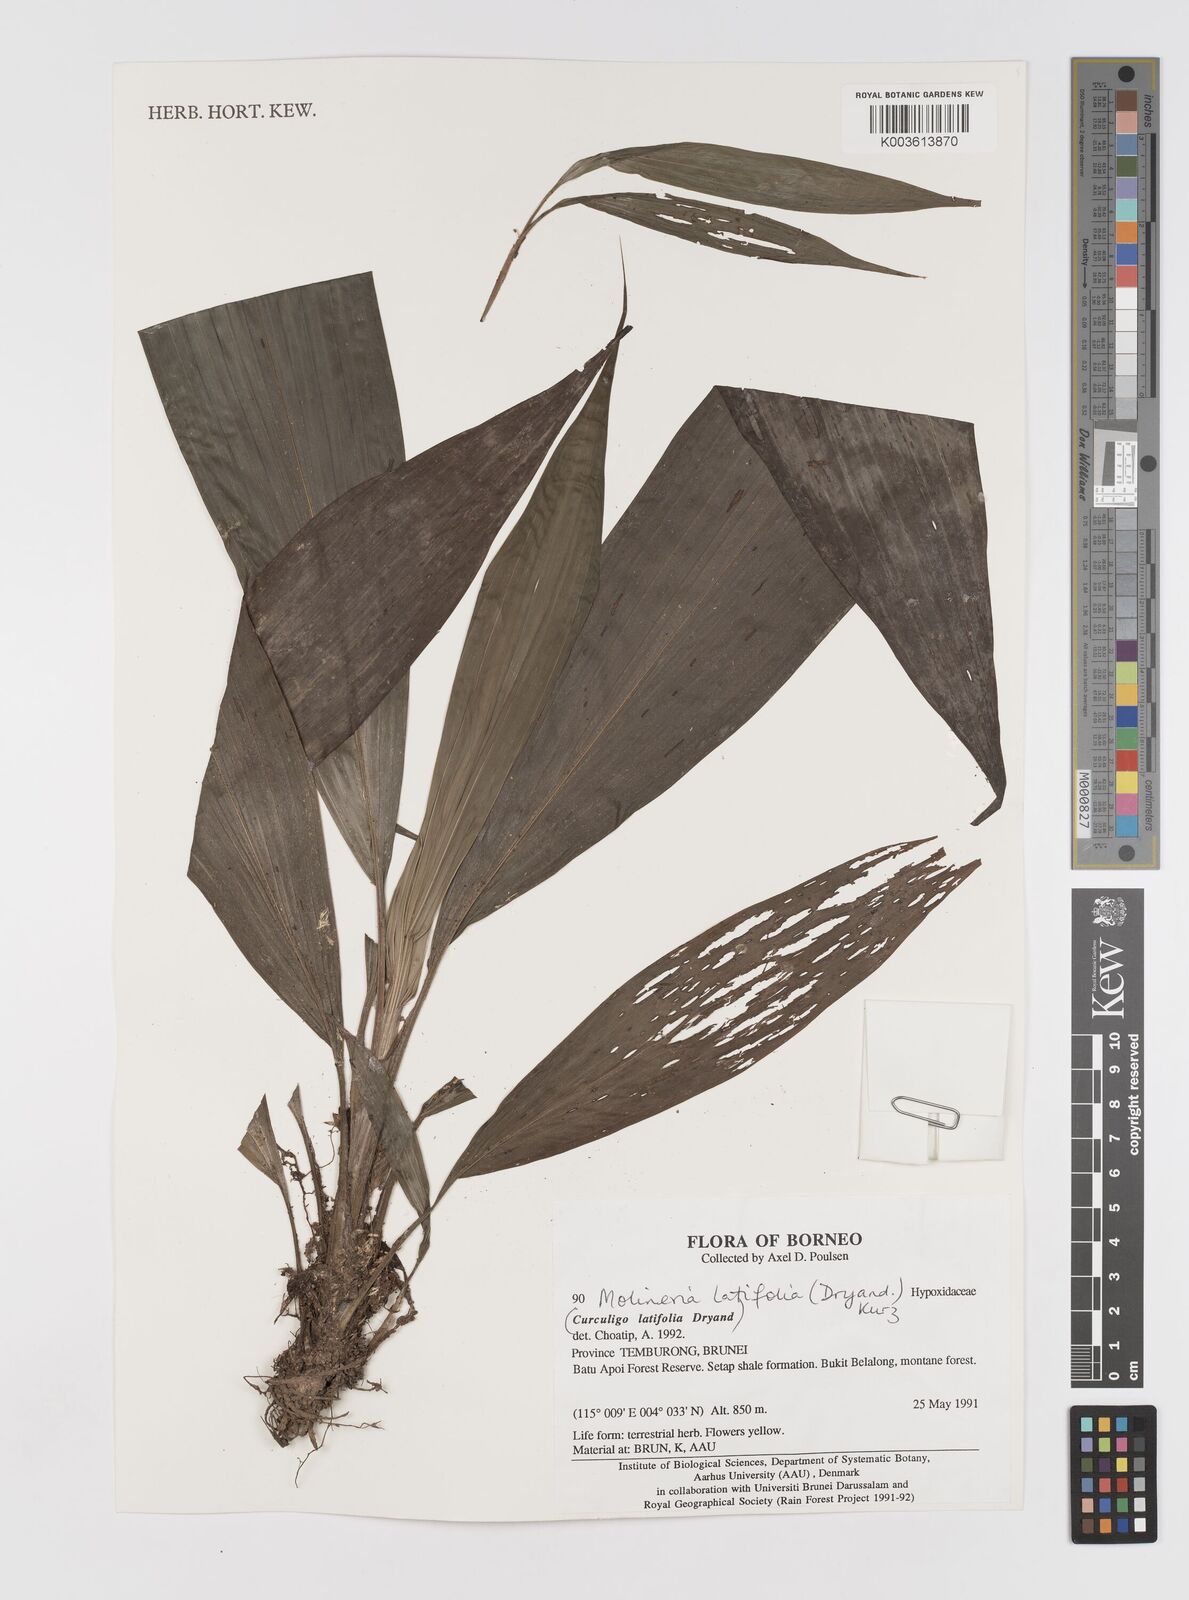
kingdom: Plantae
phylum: Tracheophyta
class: Liliopsida
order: Asparagales
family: Hypoxidaceae
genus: Curculigo
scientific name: Curculigo latifolia
